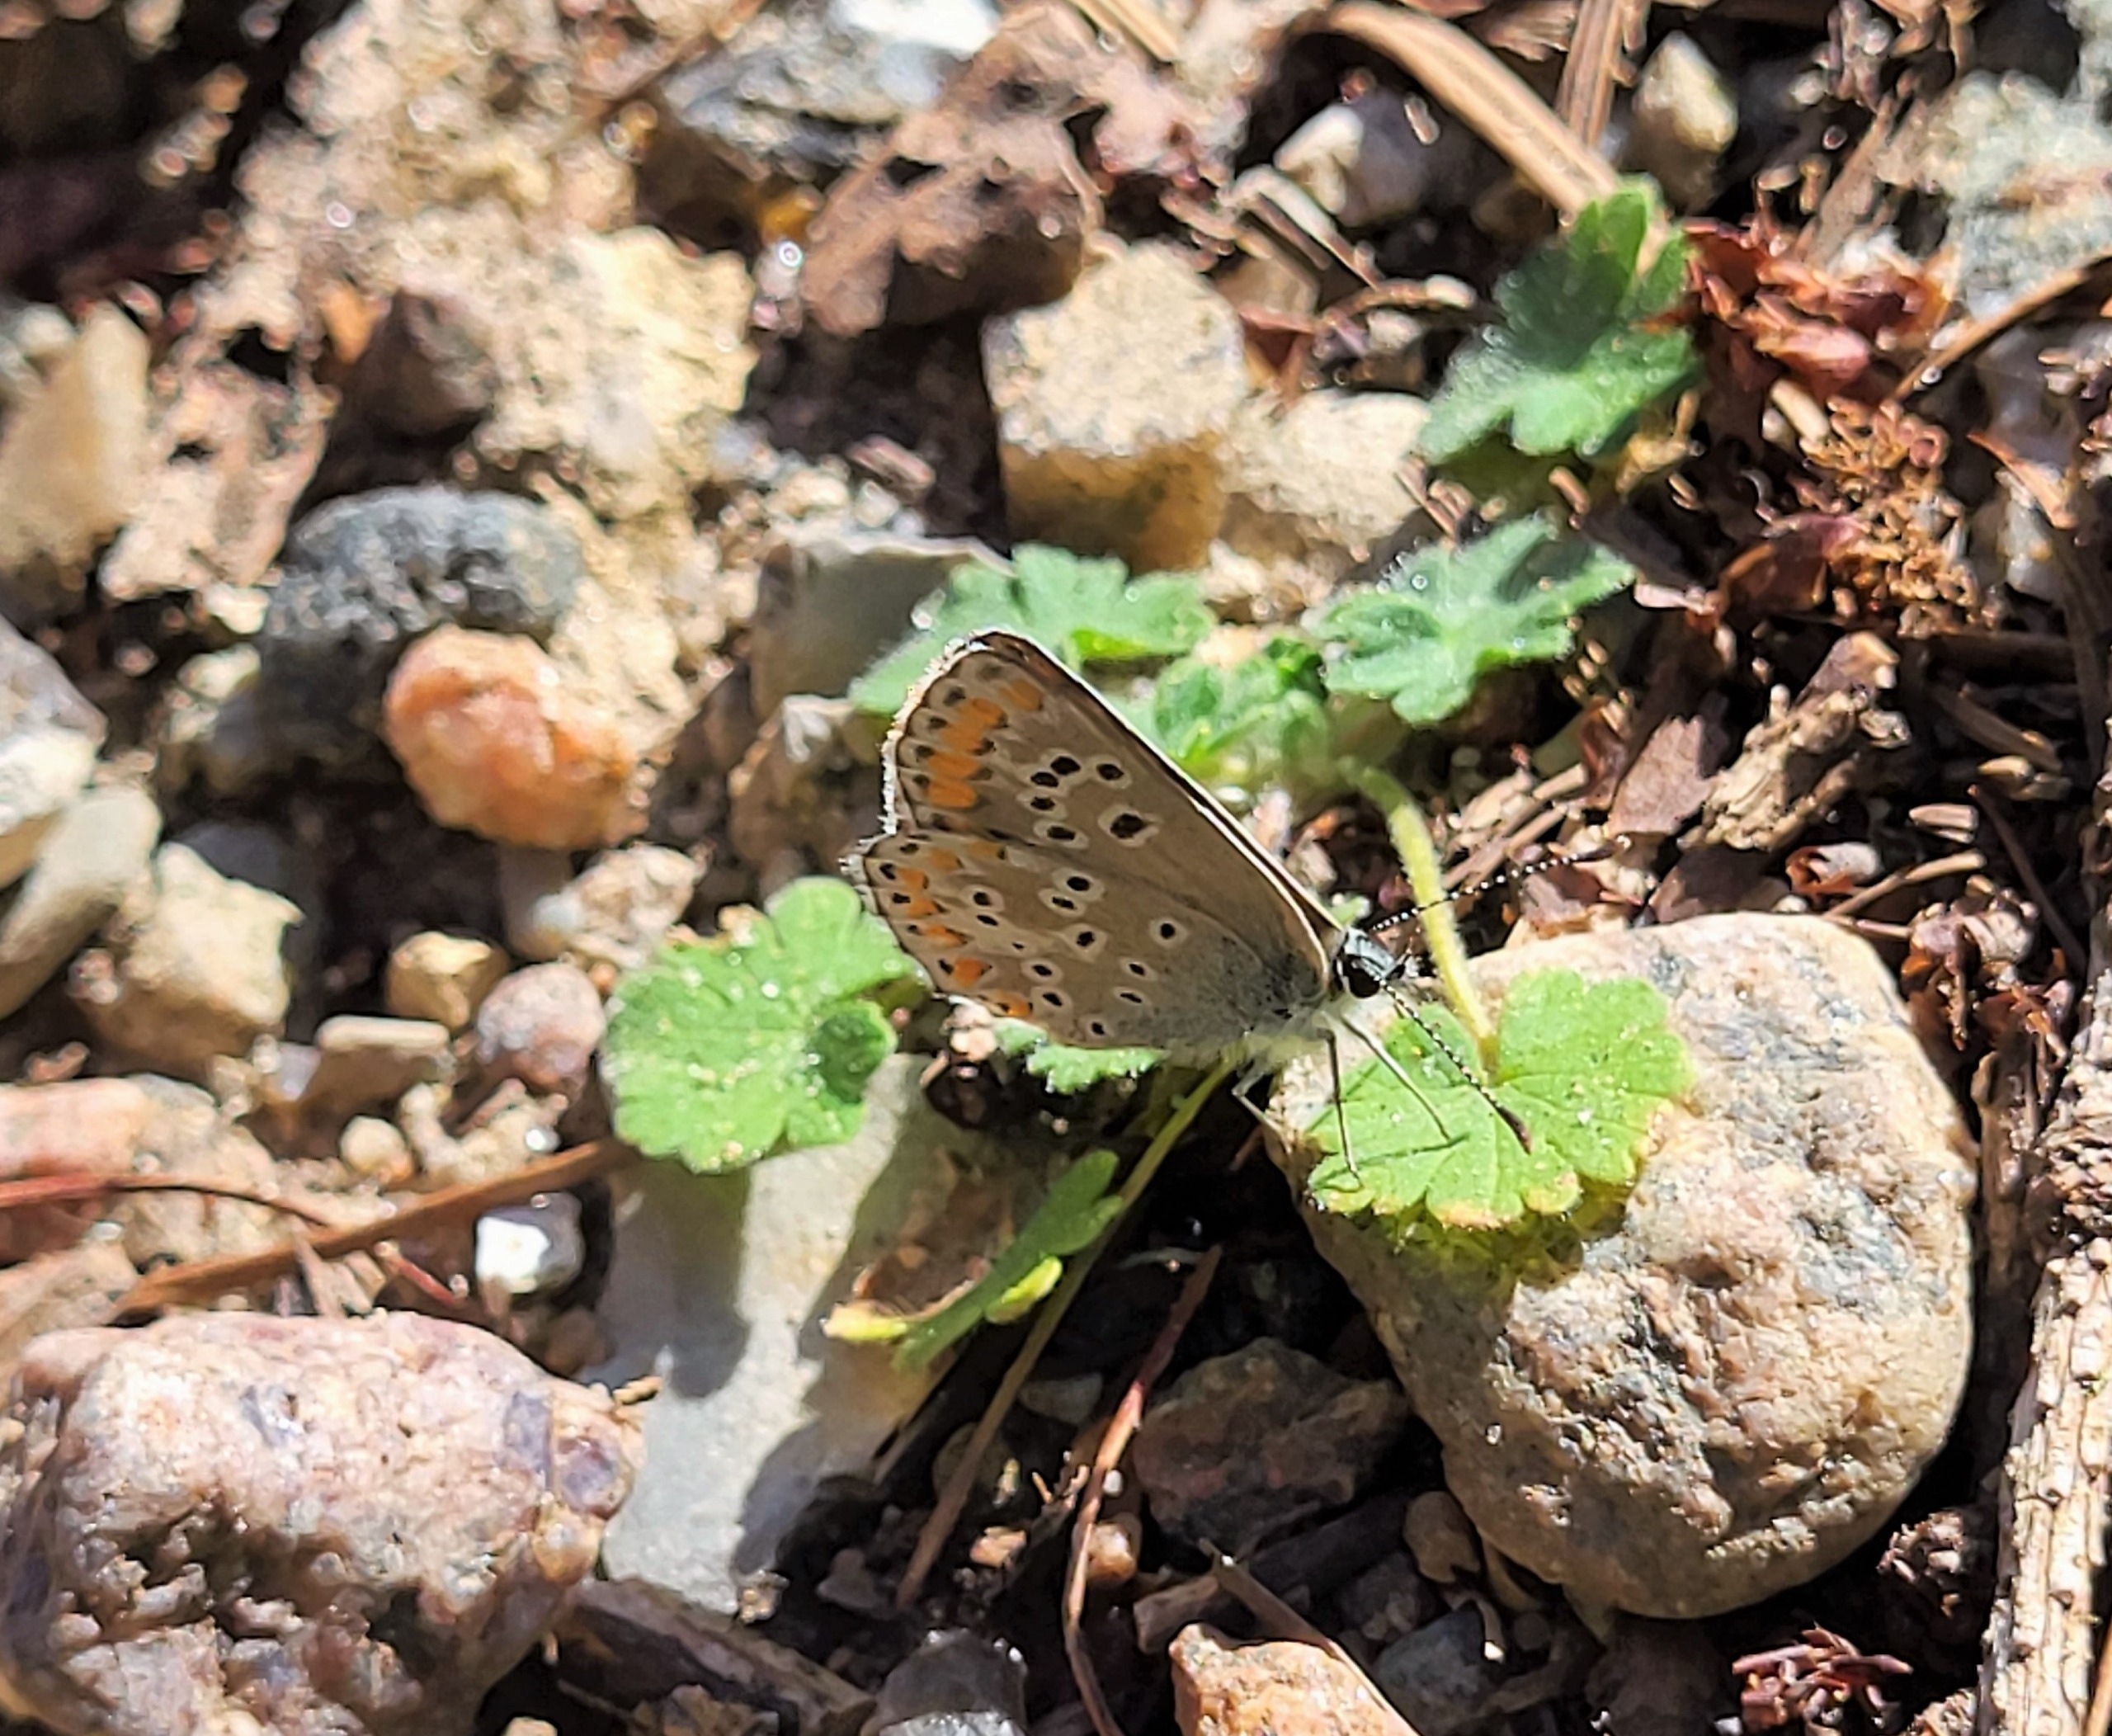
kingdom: Animalia
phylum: Arthropoda
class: Insecta
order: Lepidoptera
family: Lycaenidae
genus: Aricia
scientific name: Aricia agestis
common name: Rødplettet blåfugl
